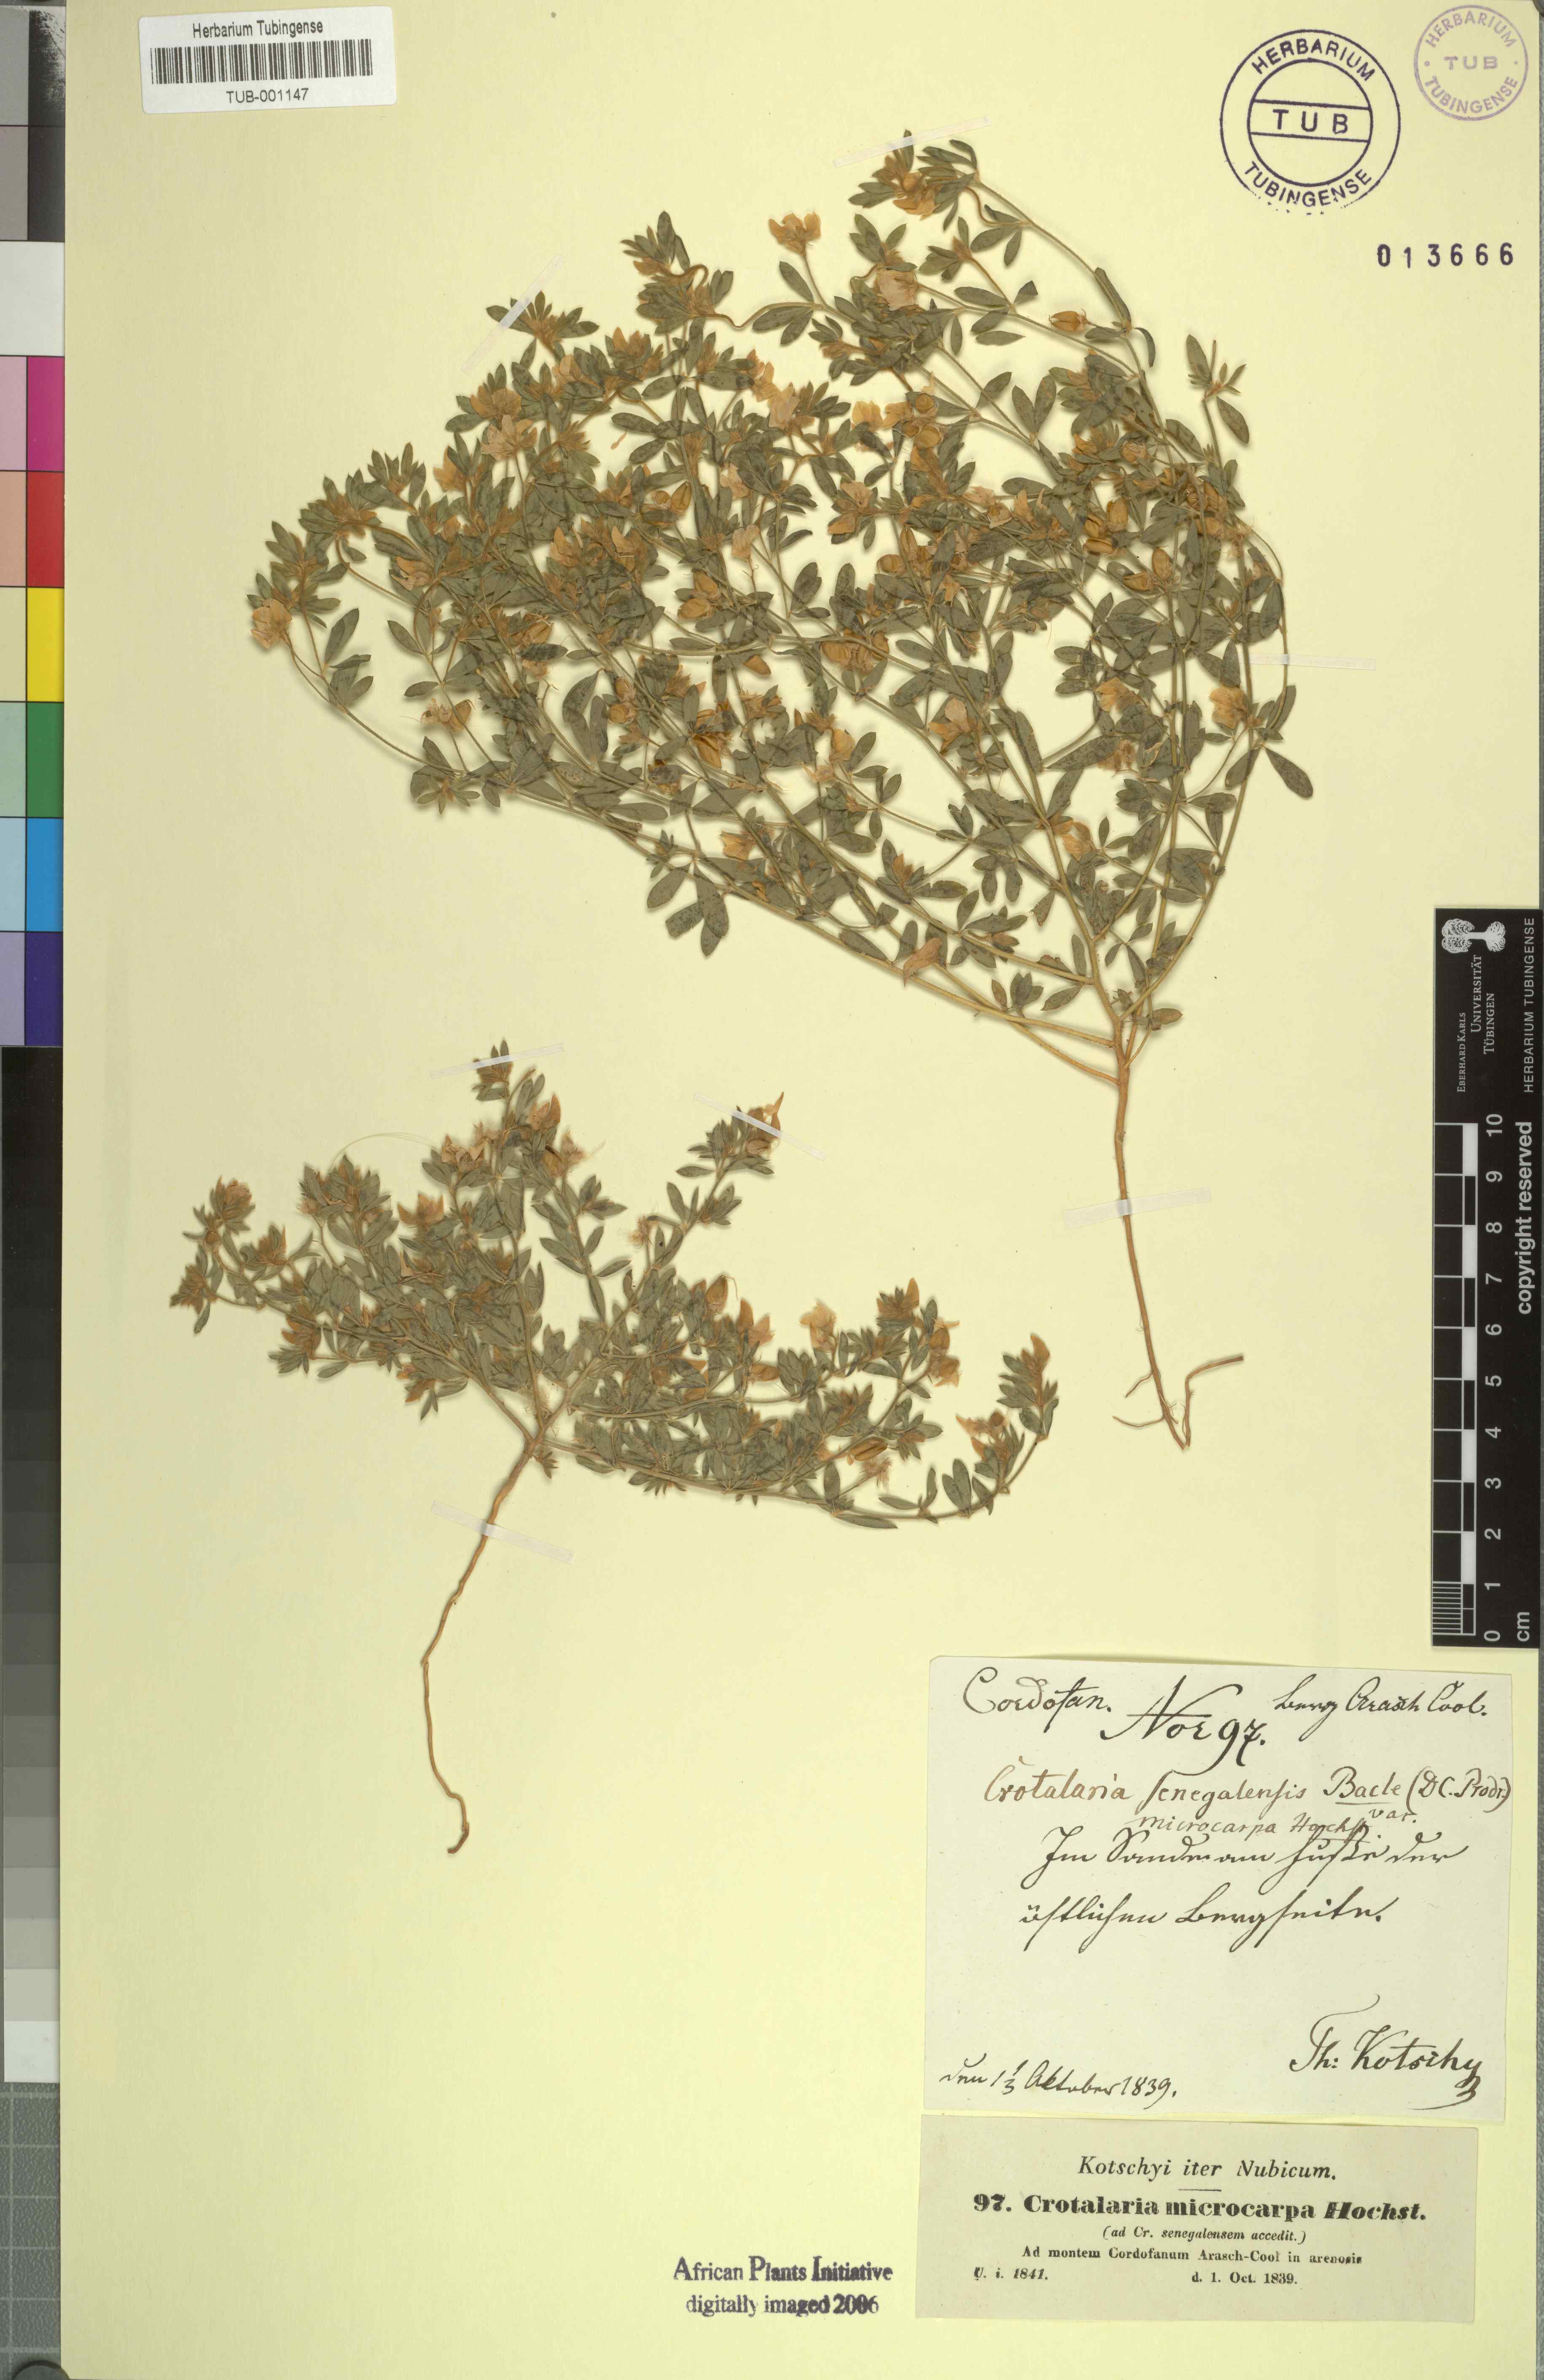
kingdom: Plantae
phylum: Tracheophyta
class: Magnoliopsida
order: Fabales
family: Fabaceae
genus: Crotalaria
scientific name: Crotalaria microcarpa
